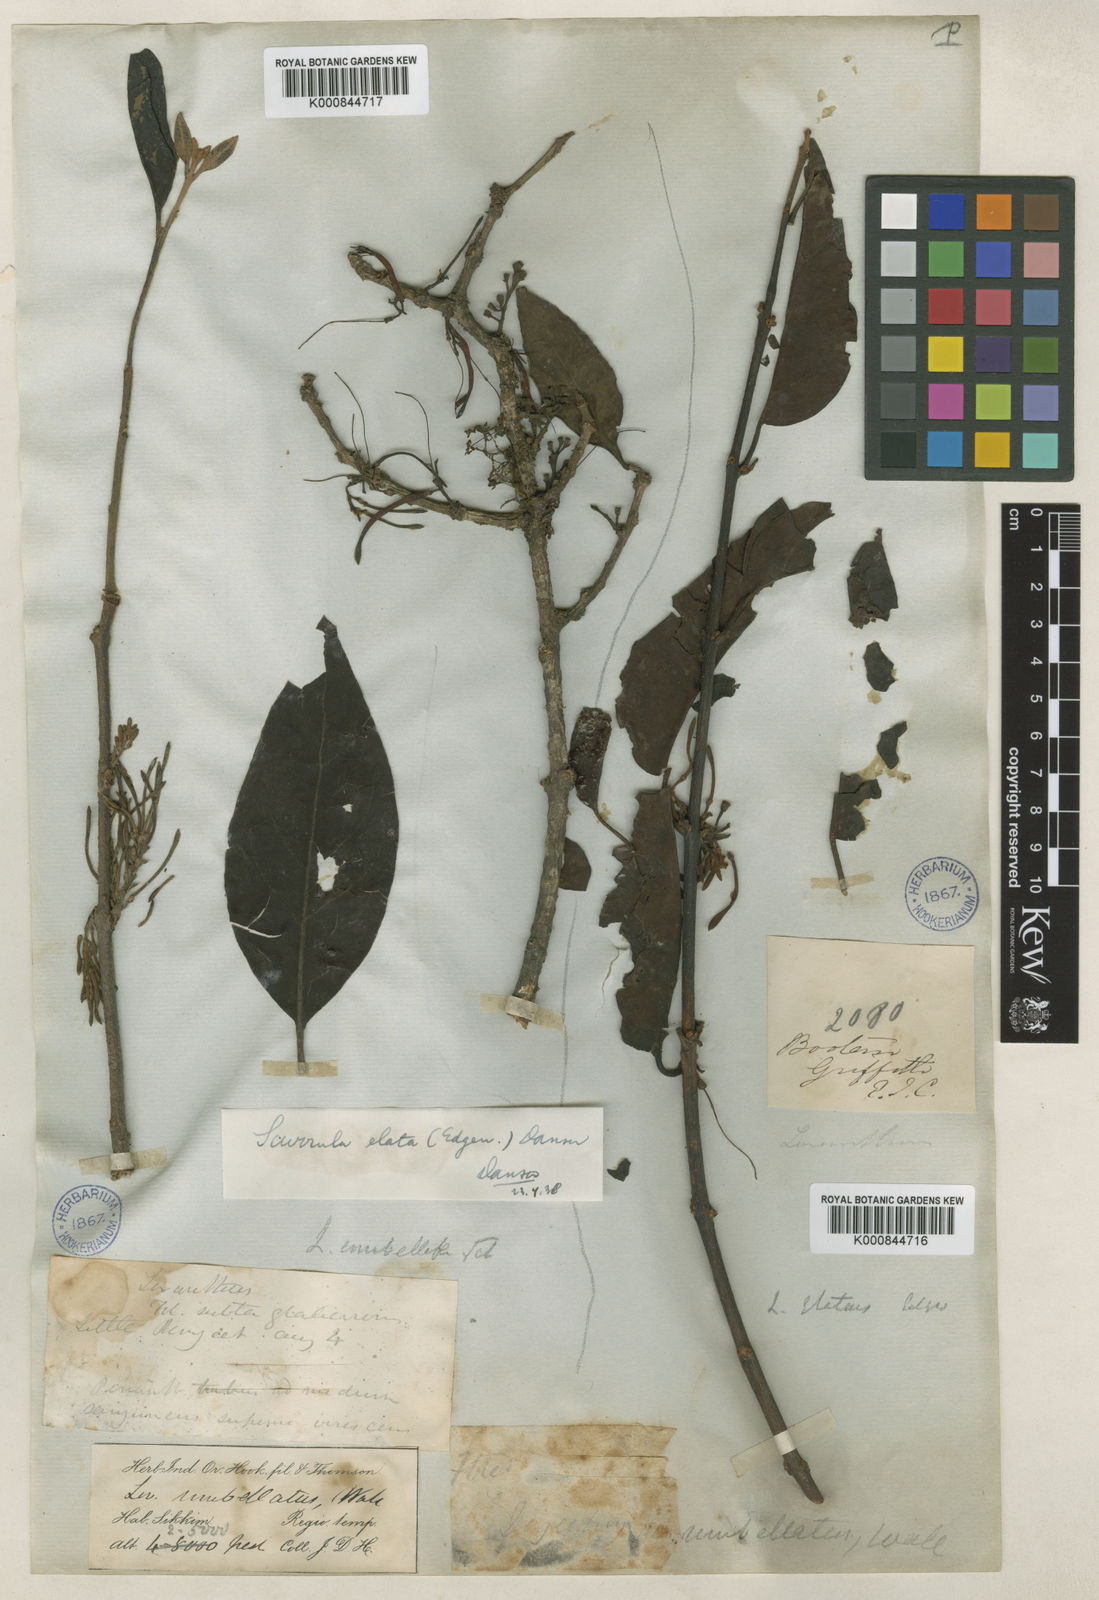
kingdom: Plantae
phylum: Tracheophyta
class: Magnoliopsida
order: Santalales
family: Loranthaceae
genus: Scurrula
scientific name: Scurrula elata
